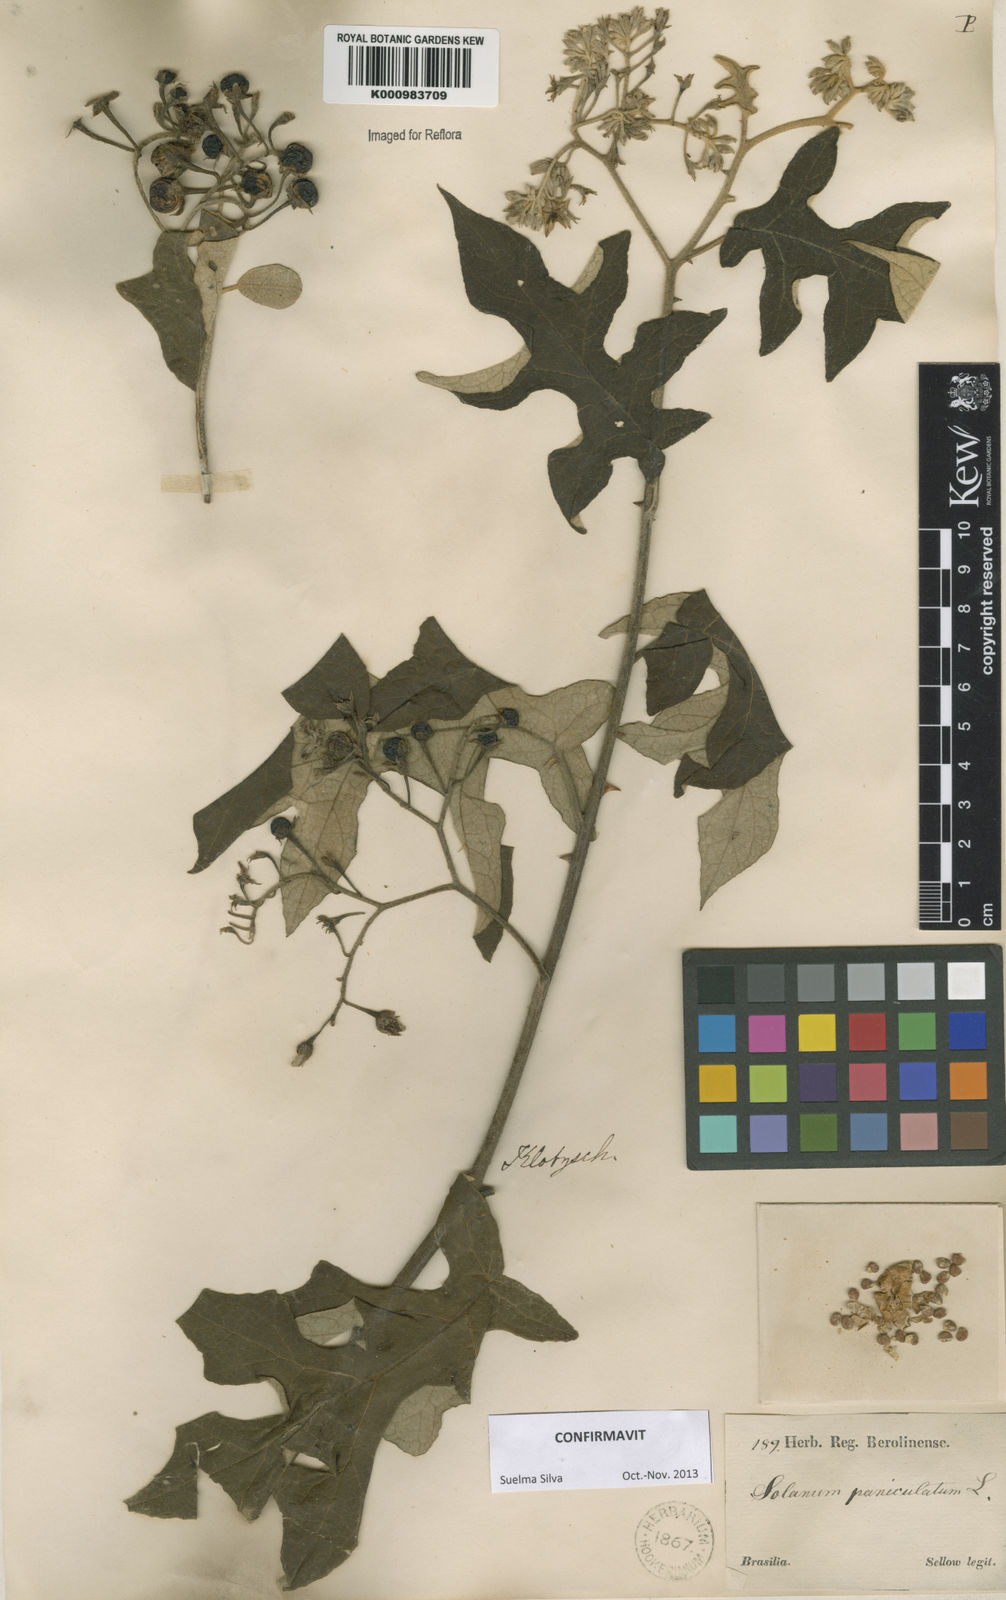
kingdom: Plantae
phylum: Tracheophyta
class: Magnoliopsida
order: Solanales
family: Solanaceae
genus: Solanum
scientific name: Solanum paniculatum
